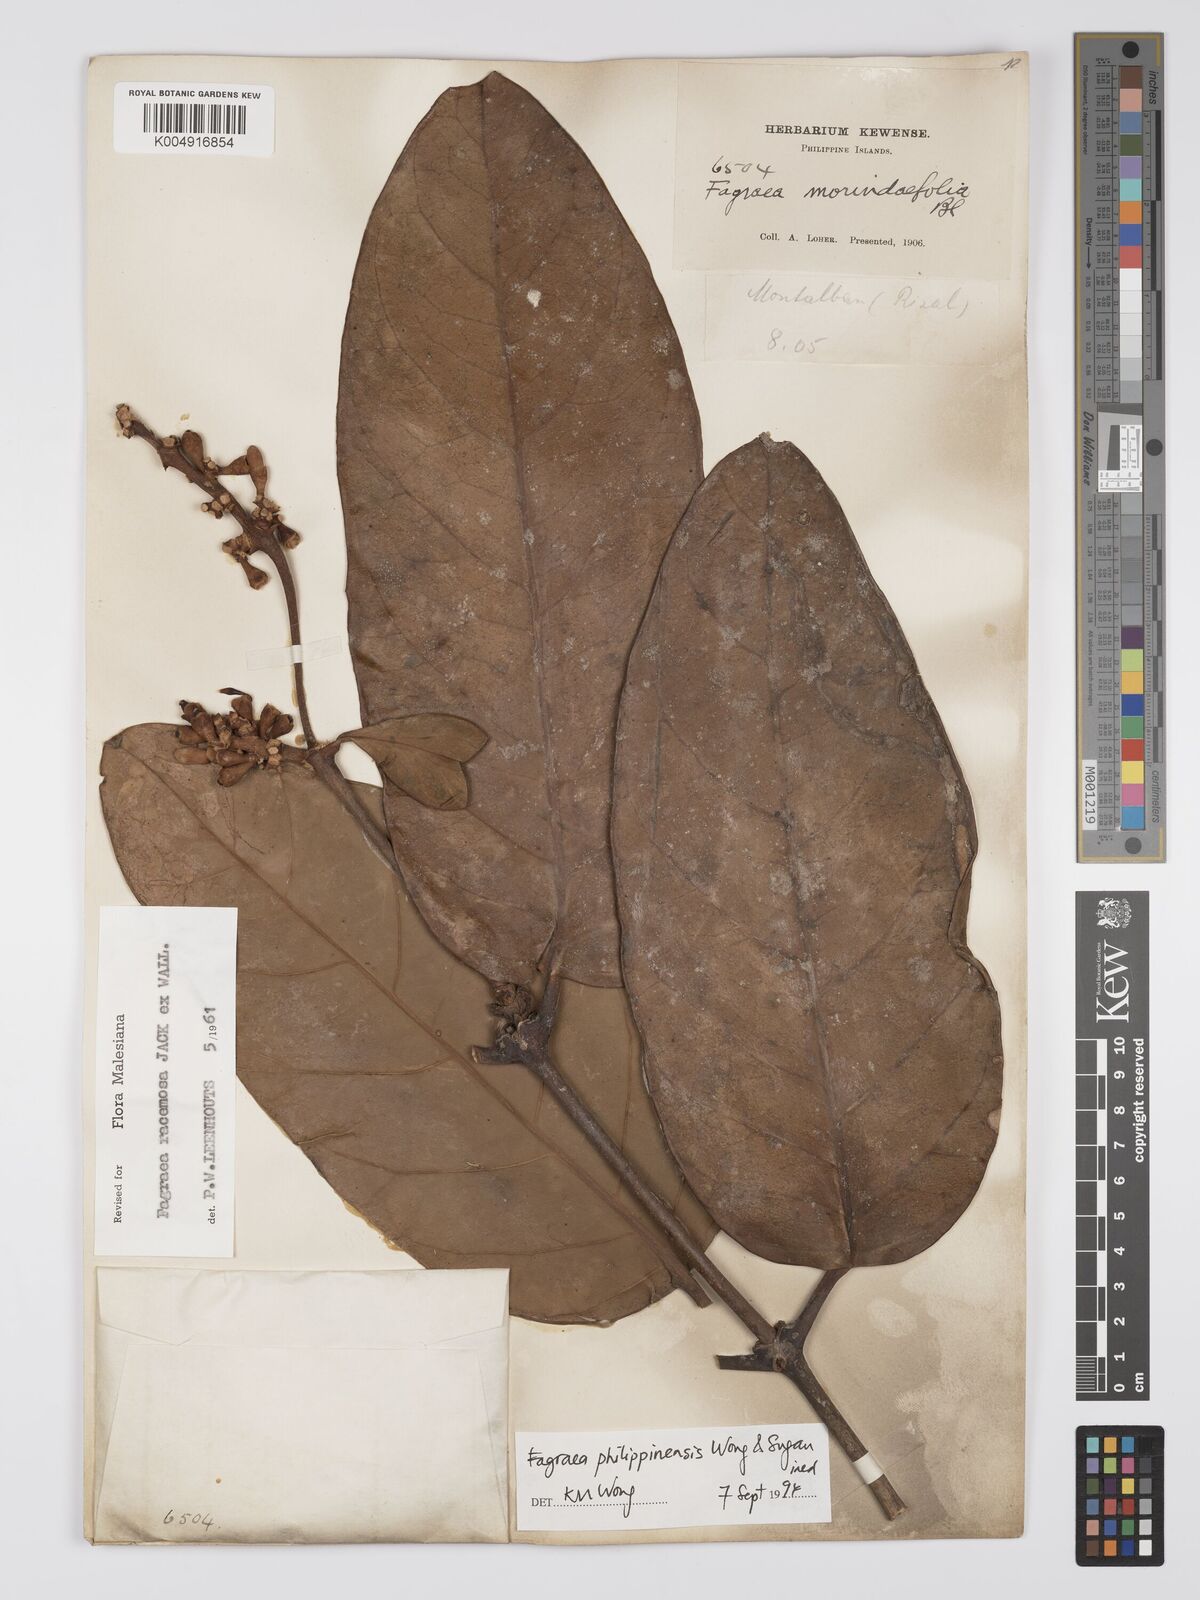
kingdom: Plantae
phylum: Tracheophyta
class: Magnoliopsida
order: Gentianales
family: Gentianaceae
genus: Utania
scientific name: Utania racemosa
